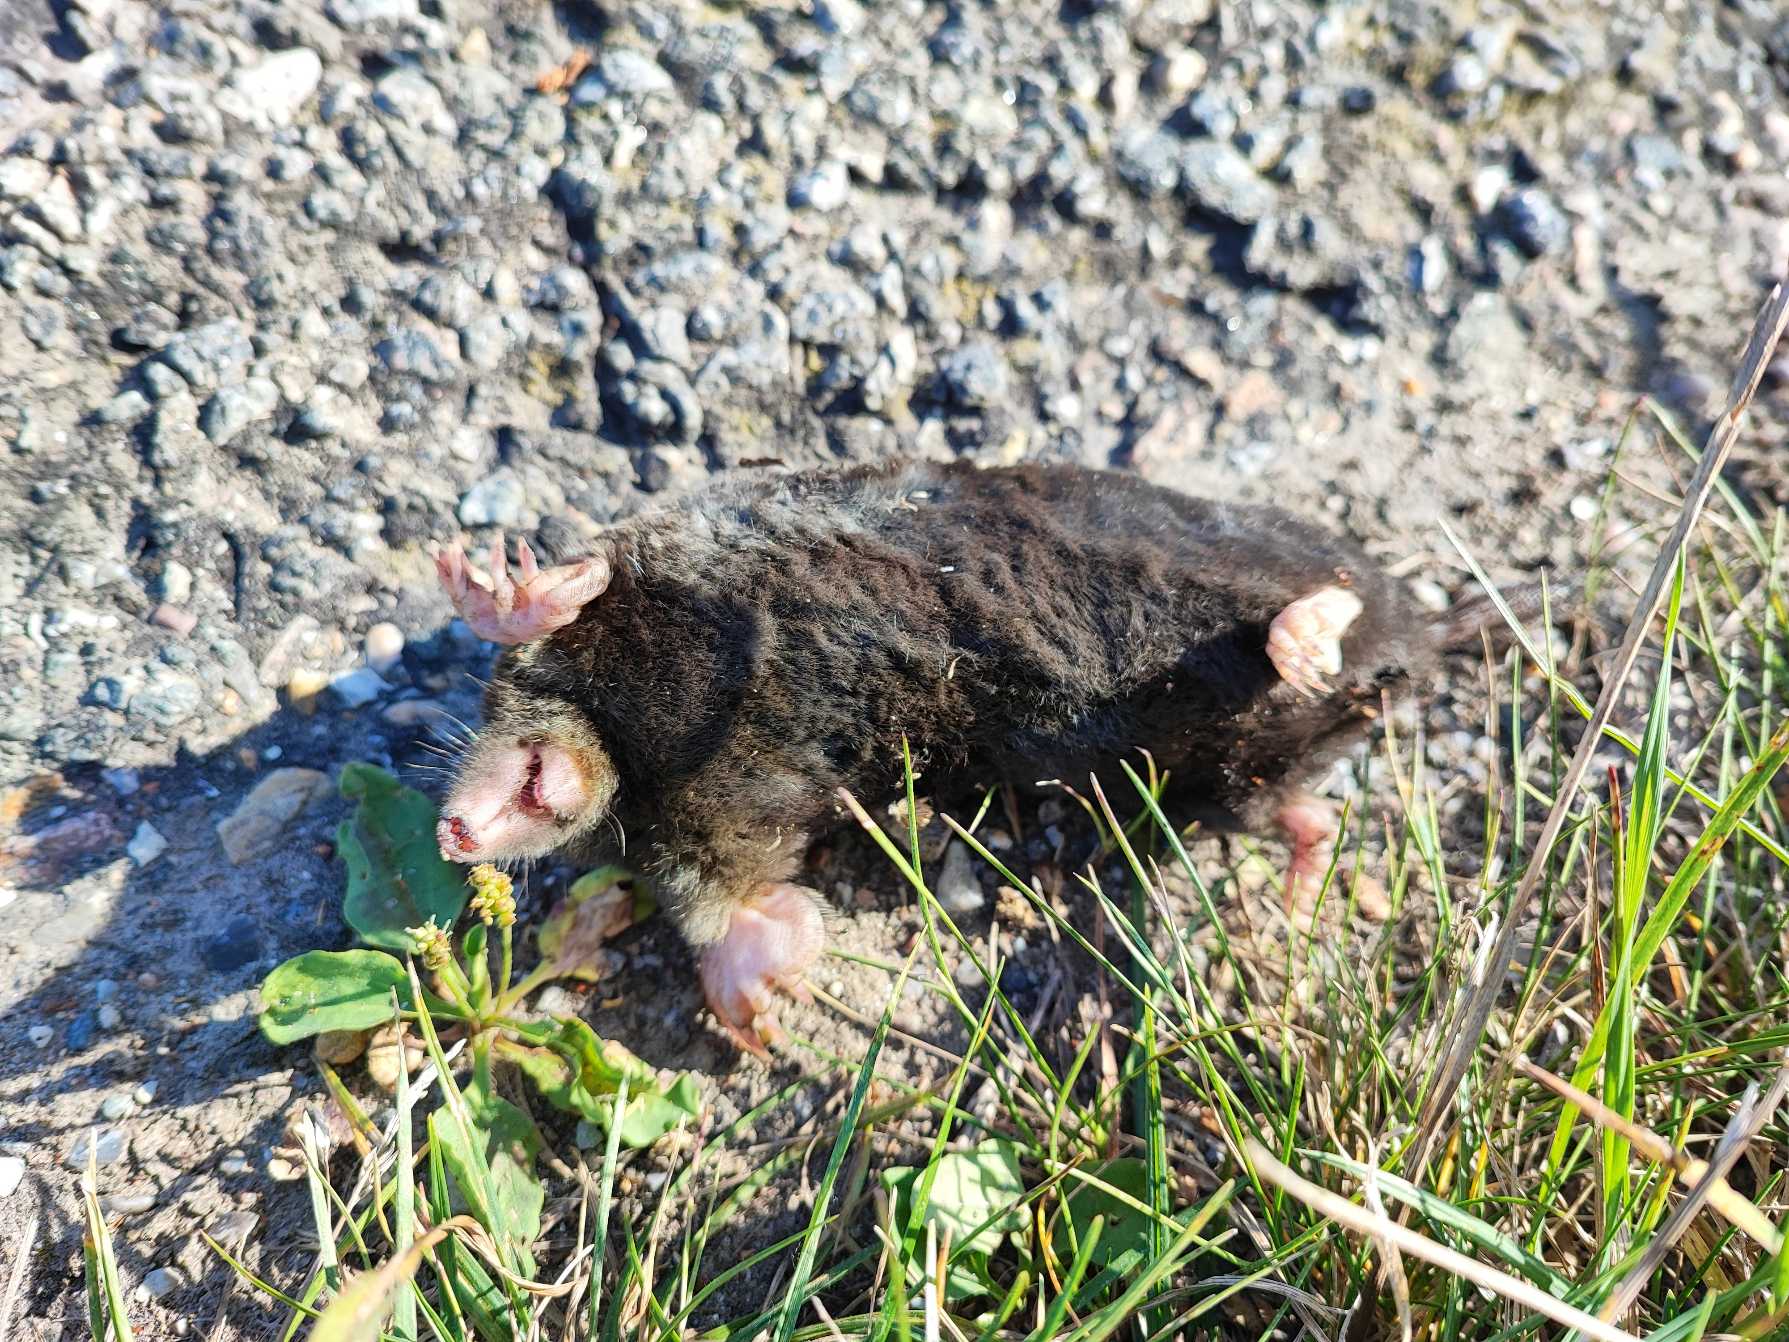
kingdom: Animalia
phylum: Chordata
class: Mammalia
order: Soricomorpha
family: Talpidae
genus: Talpa
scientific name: Talpa europaea
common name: Muldvarp
